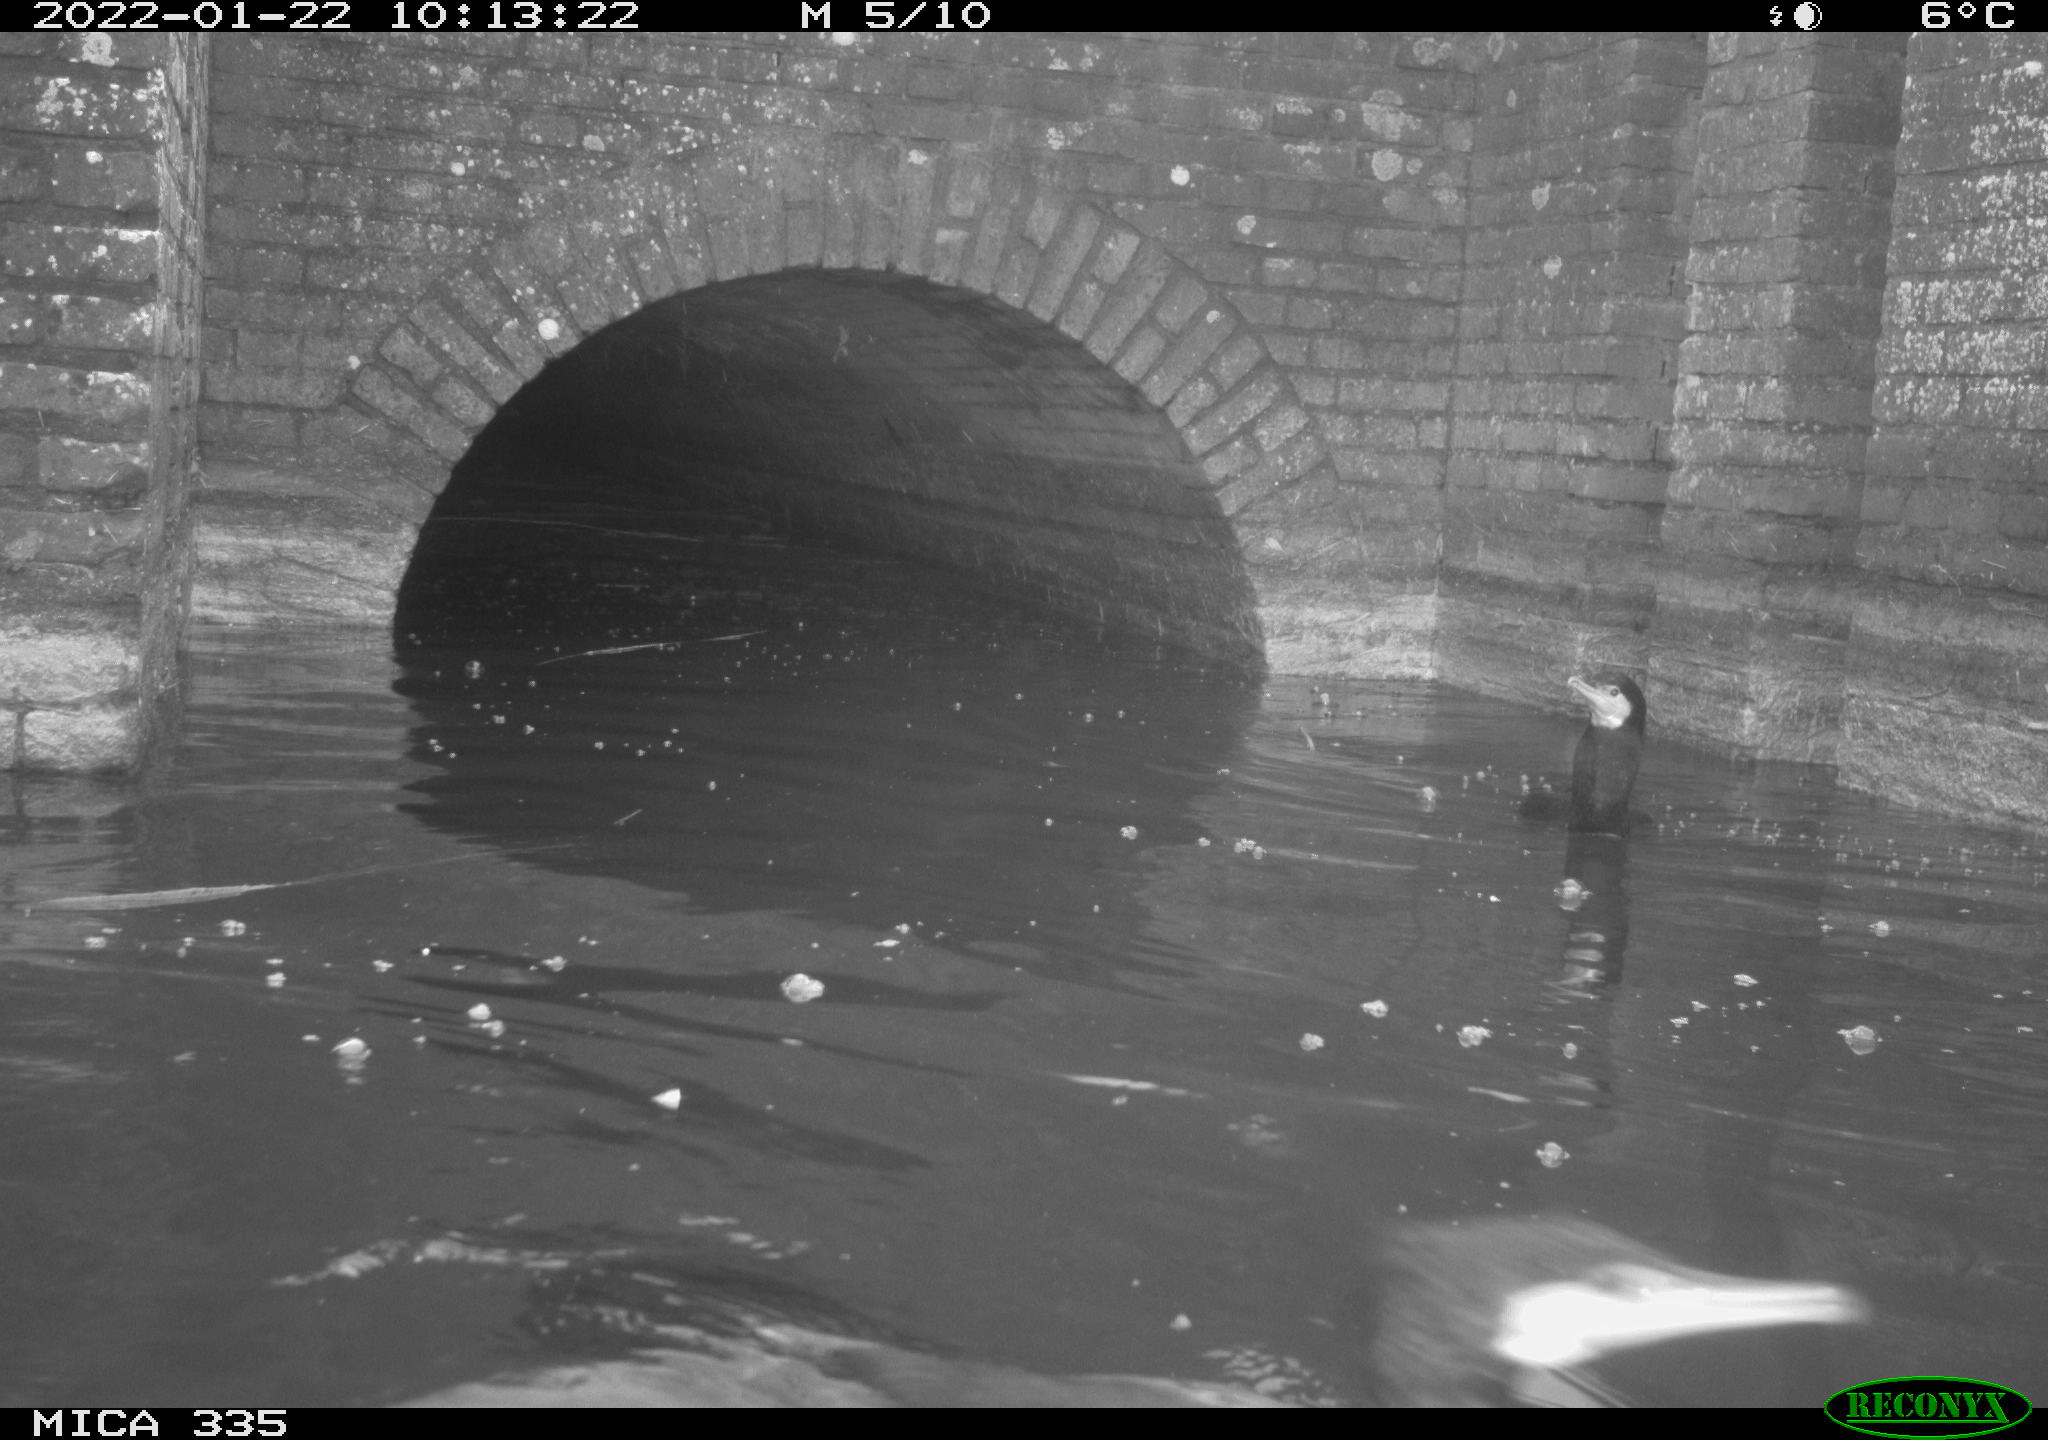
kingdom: Animalia
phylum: Chordata
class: Aves
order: Suliformes
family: Phalacrocoracidae
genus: Phalacrocorax
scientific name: Phalacrocorax carbo
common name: Great cormorant
